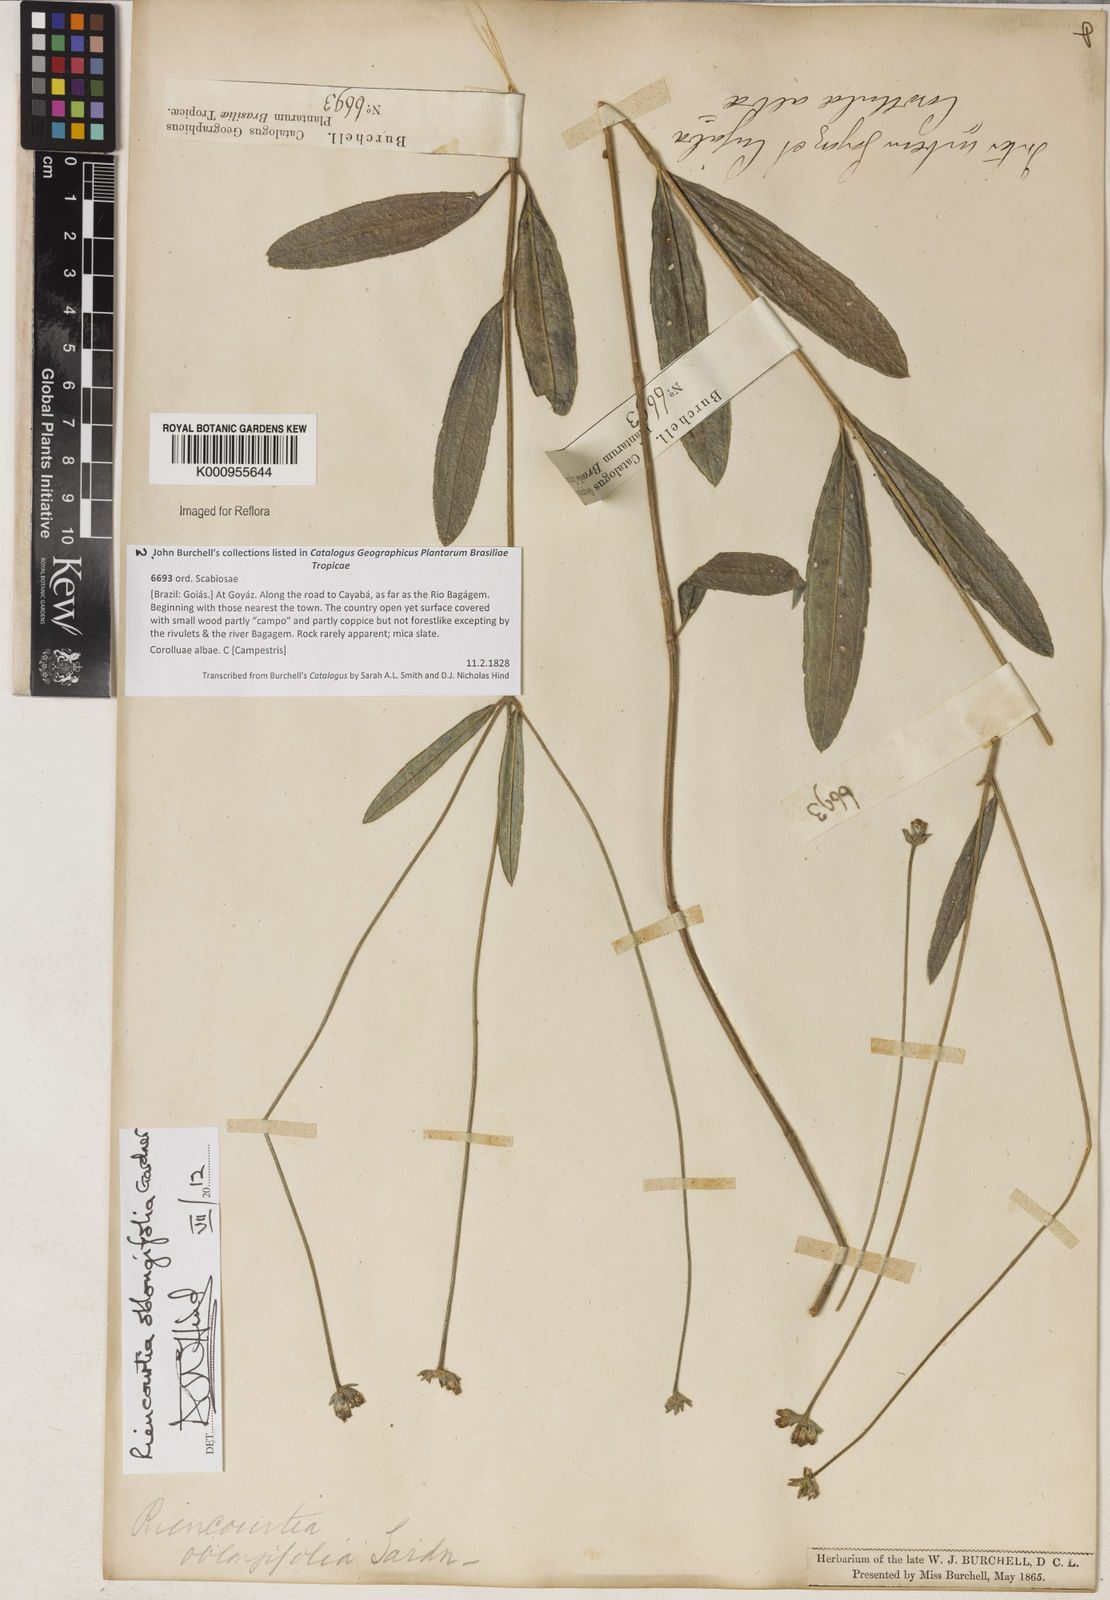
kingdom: Plantae
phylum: Tracheophyta
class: Magnoliopsida
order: Asterales
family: Asteraceae
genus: Riencourtia
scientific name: Riencourtia oblongifolia
